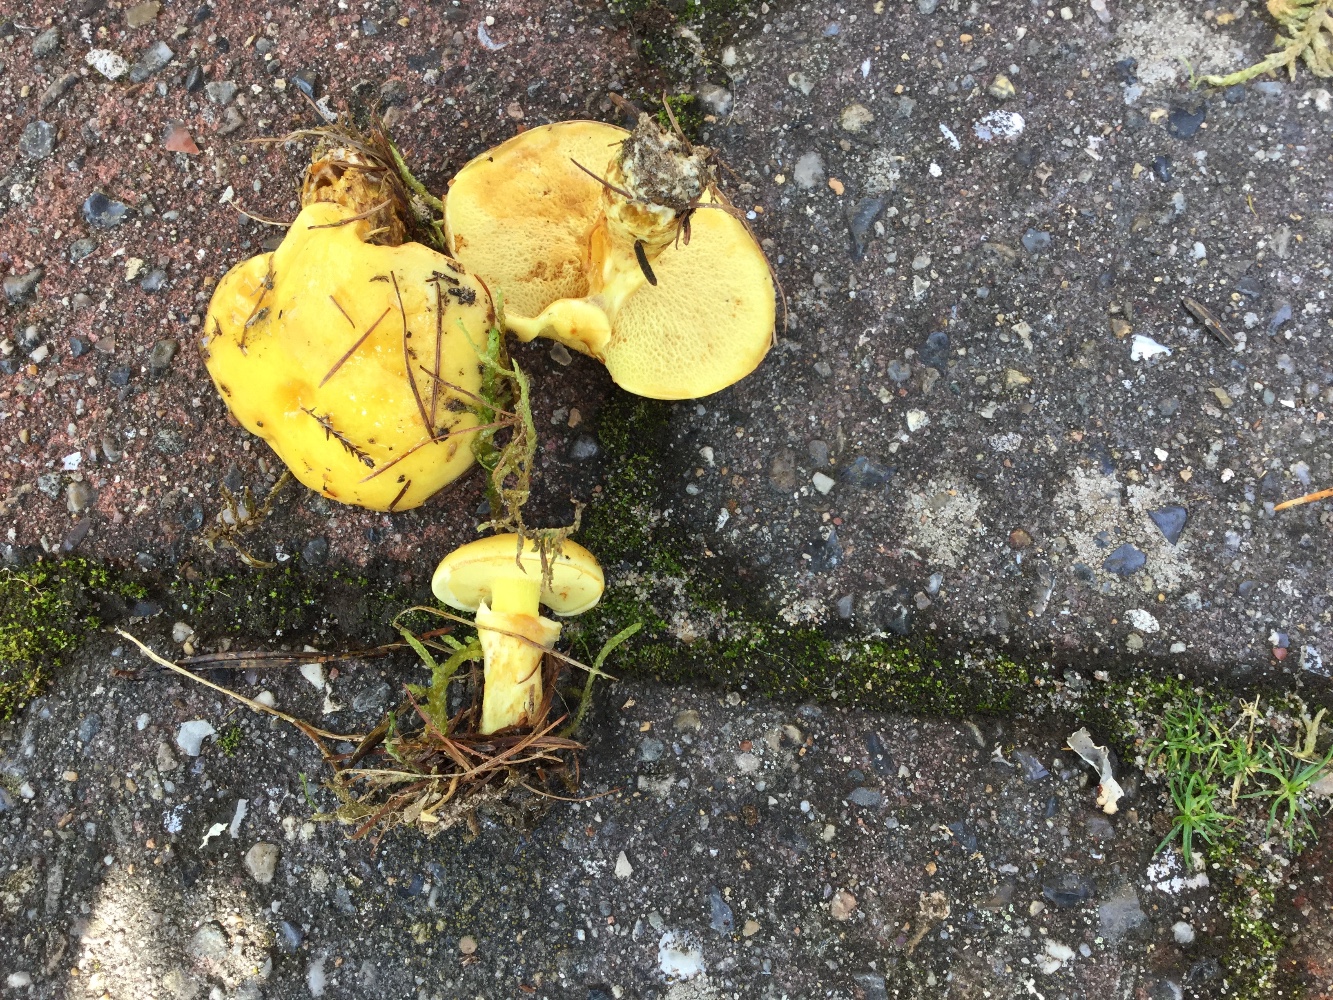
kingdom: Fungi
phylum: Basidiomycota
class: Agaricomycetes
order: Boletales
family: Suillaceae
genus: Suillus
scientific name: Suillus grevillei
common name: lærke-slimrørhat
